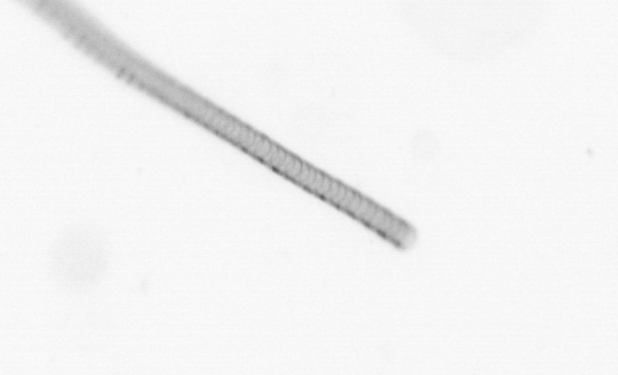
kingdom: Chromista
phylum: Ochrophyta
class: Bacillariophyceae
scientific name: Bacillariophyceae
